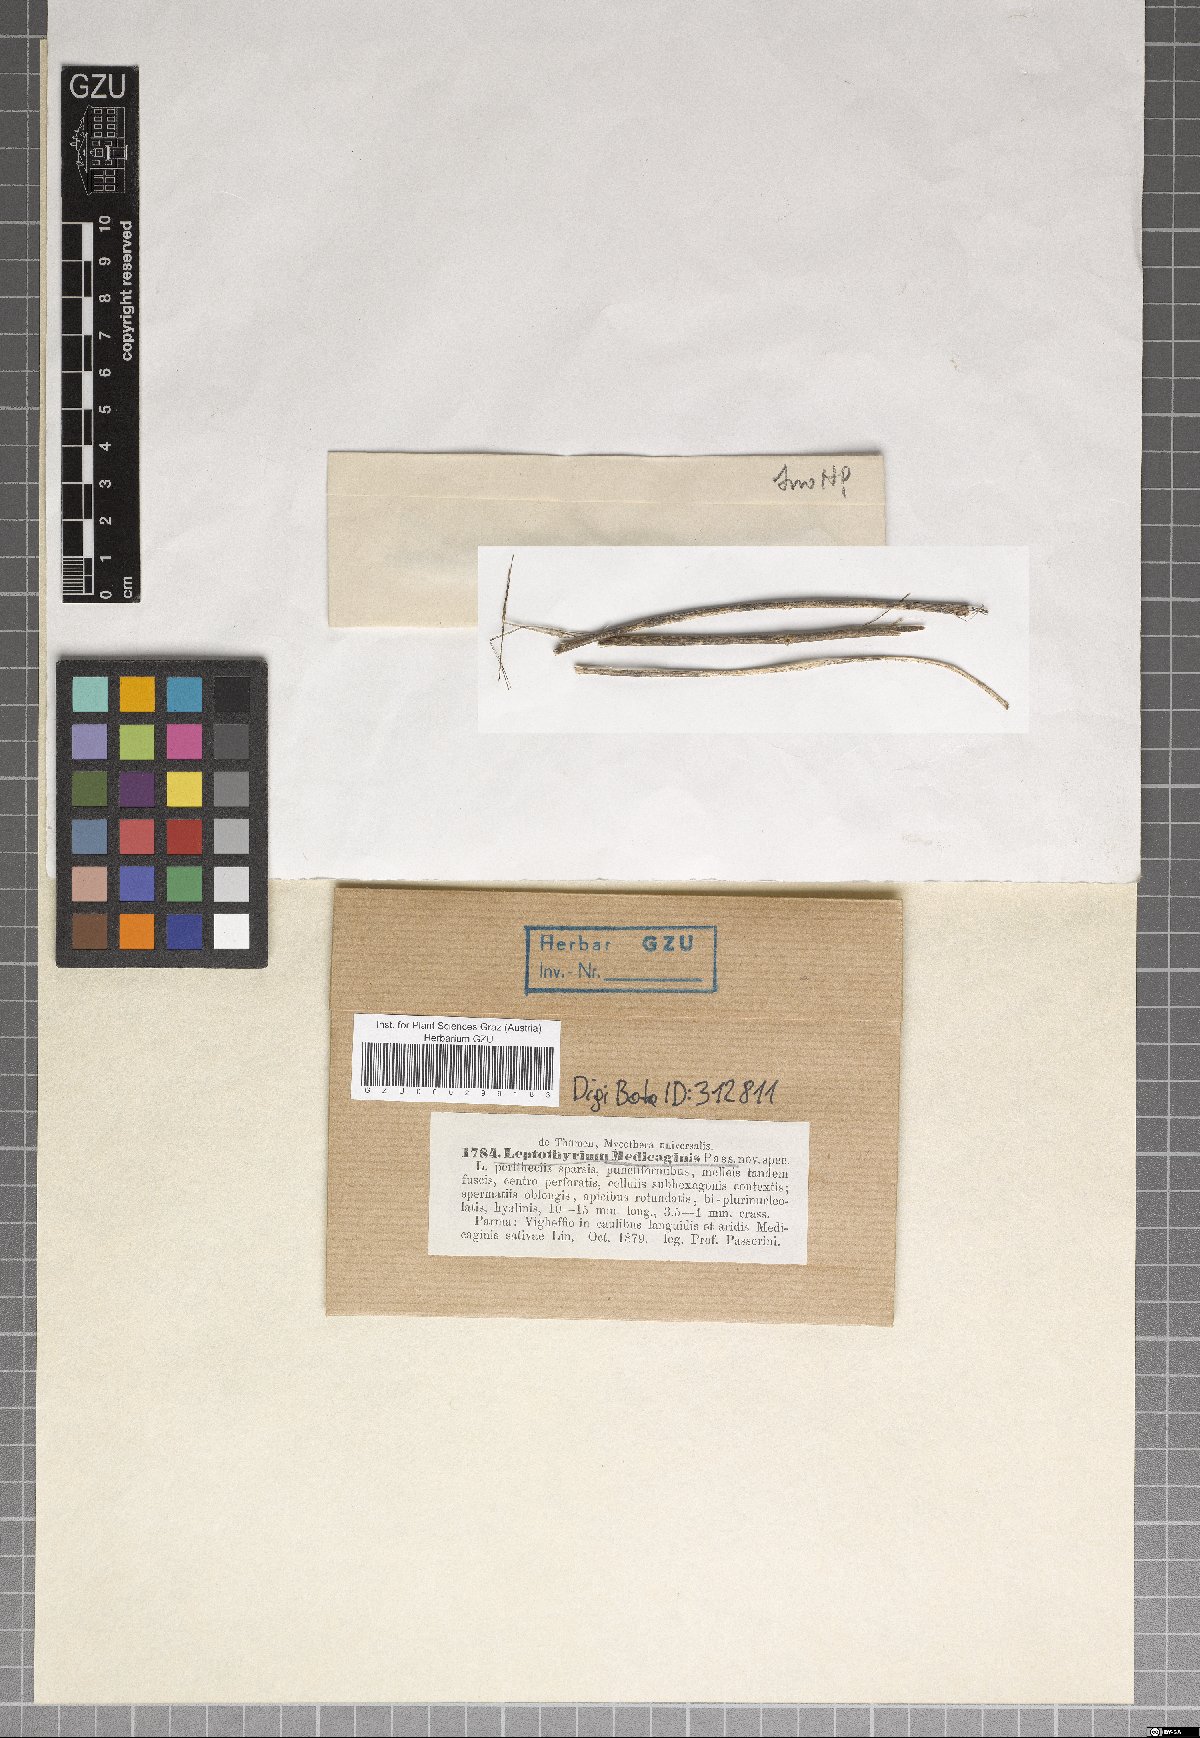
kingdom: Fungi
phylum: Ascomycota
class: Dothideomycetes
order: Pleosporales
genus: Leptothyrium
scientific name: Leptothyrium
